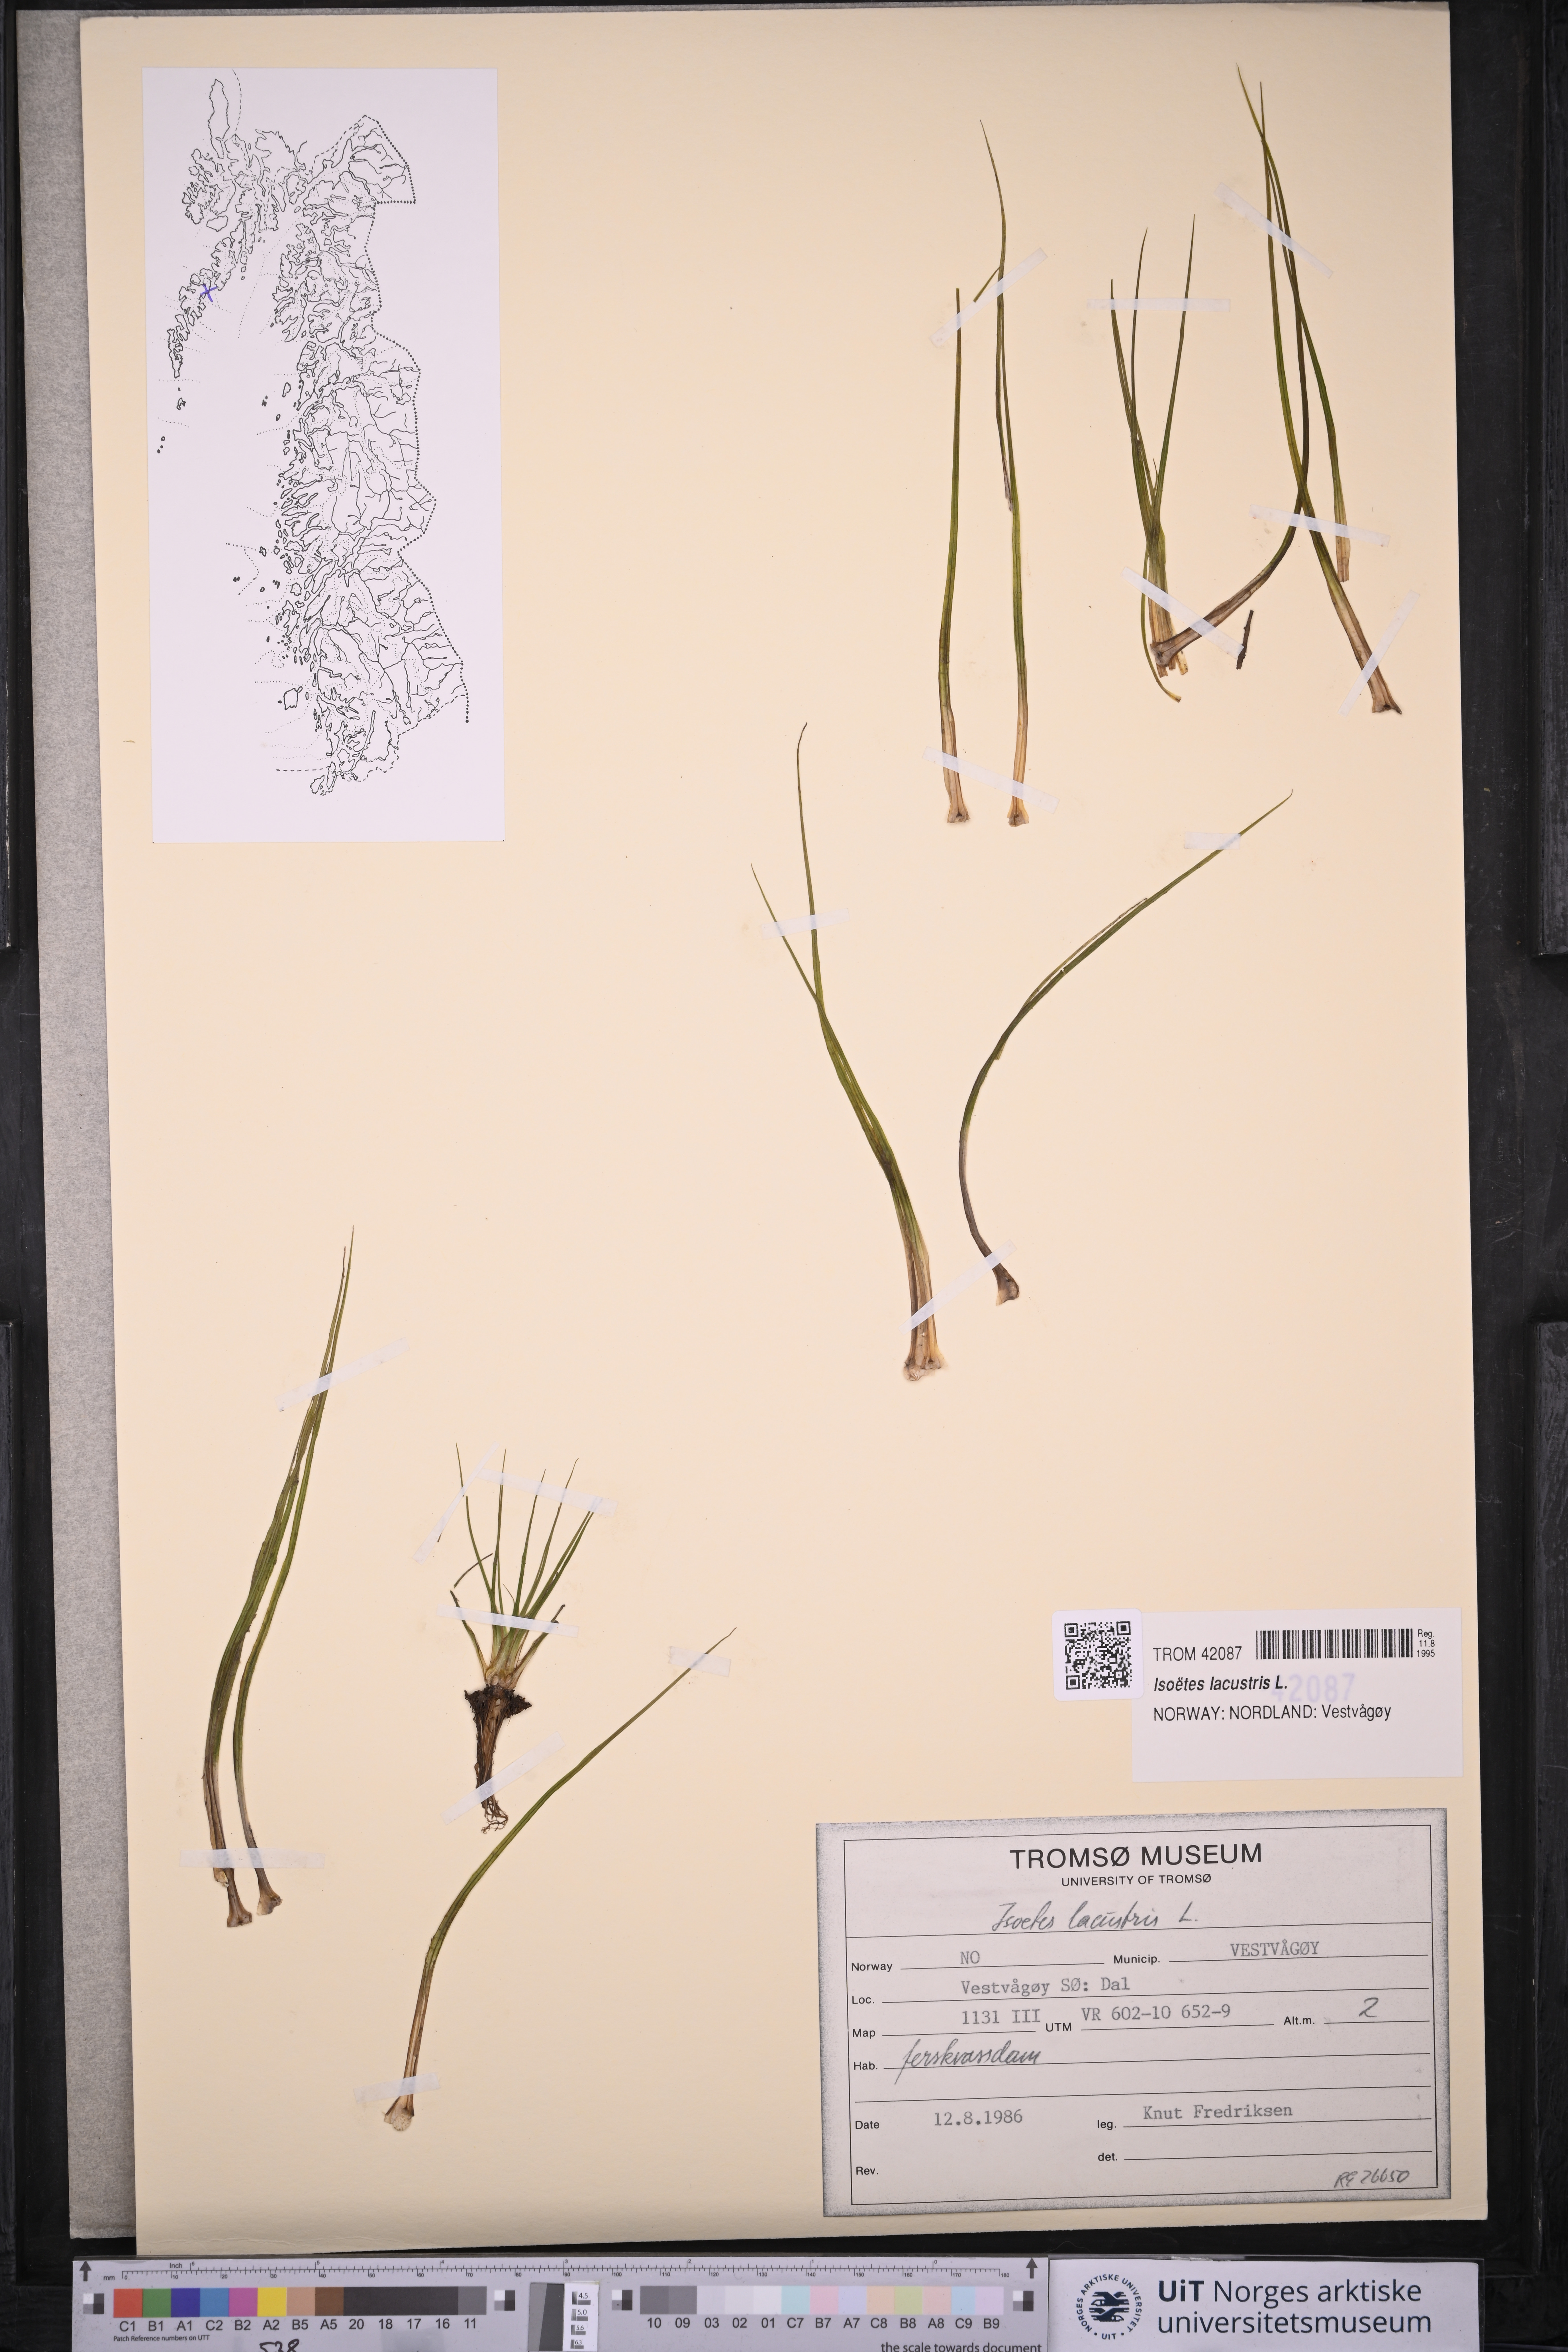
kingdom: Plantae
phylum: Tracheophyta
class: Lycopodiopsida
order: Isoetales
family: Isoetaceae
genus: Isoetes
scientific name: Isoetes lacustris
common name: Common quillwort
